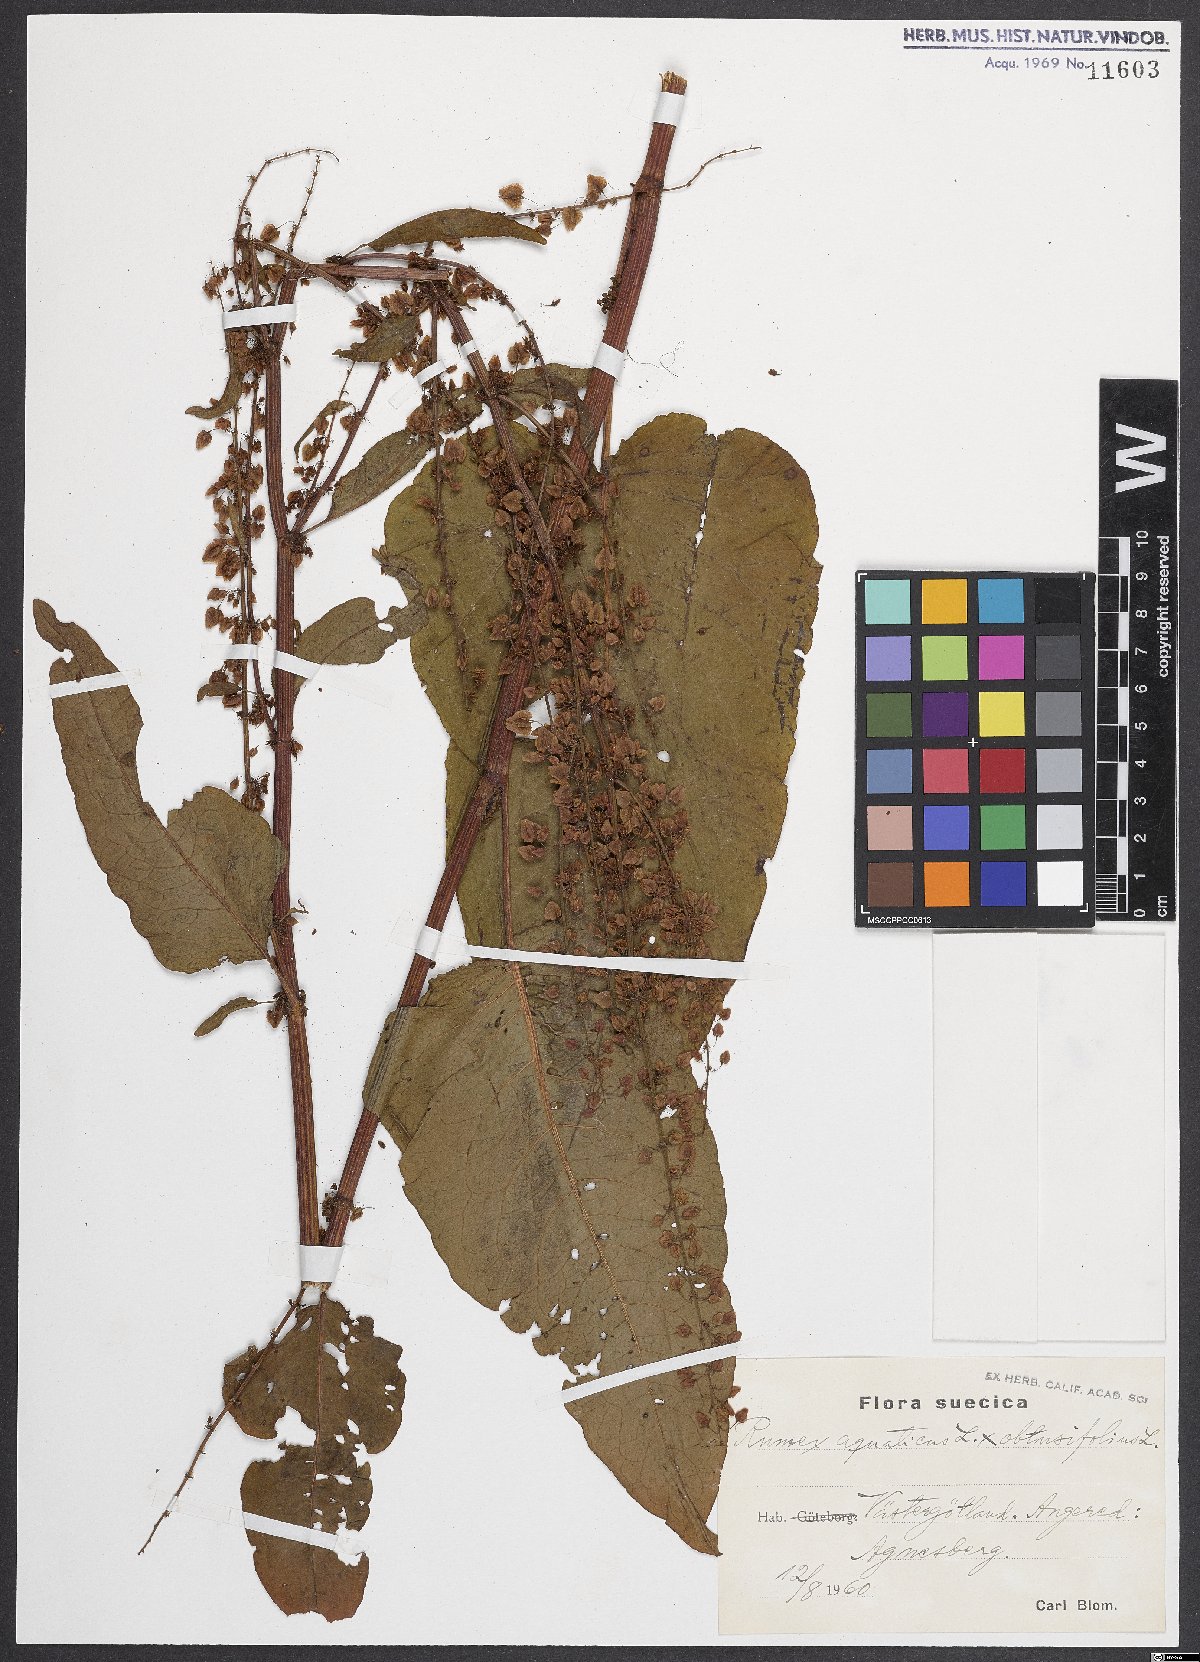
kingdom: Plantae
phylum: Tracheophyta
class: Magnoliopsida
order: Caryophyllales
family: Polygonaceae
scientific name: Polygonaceae
